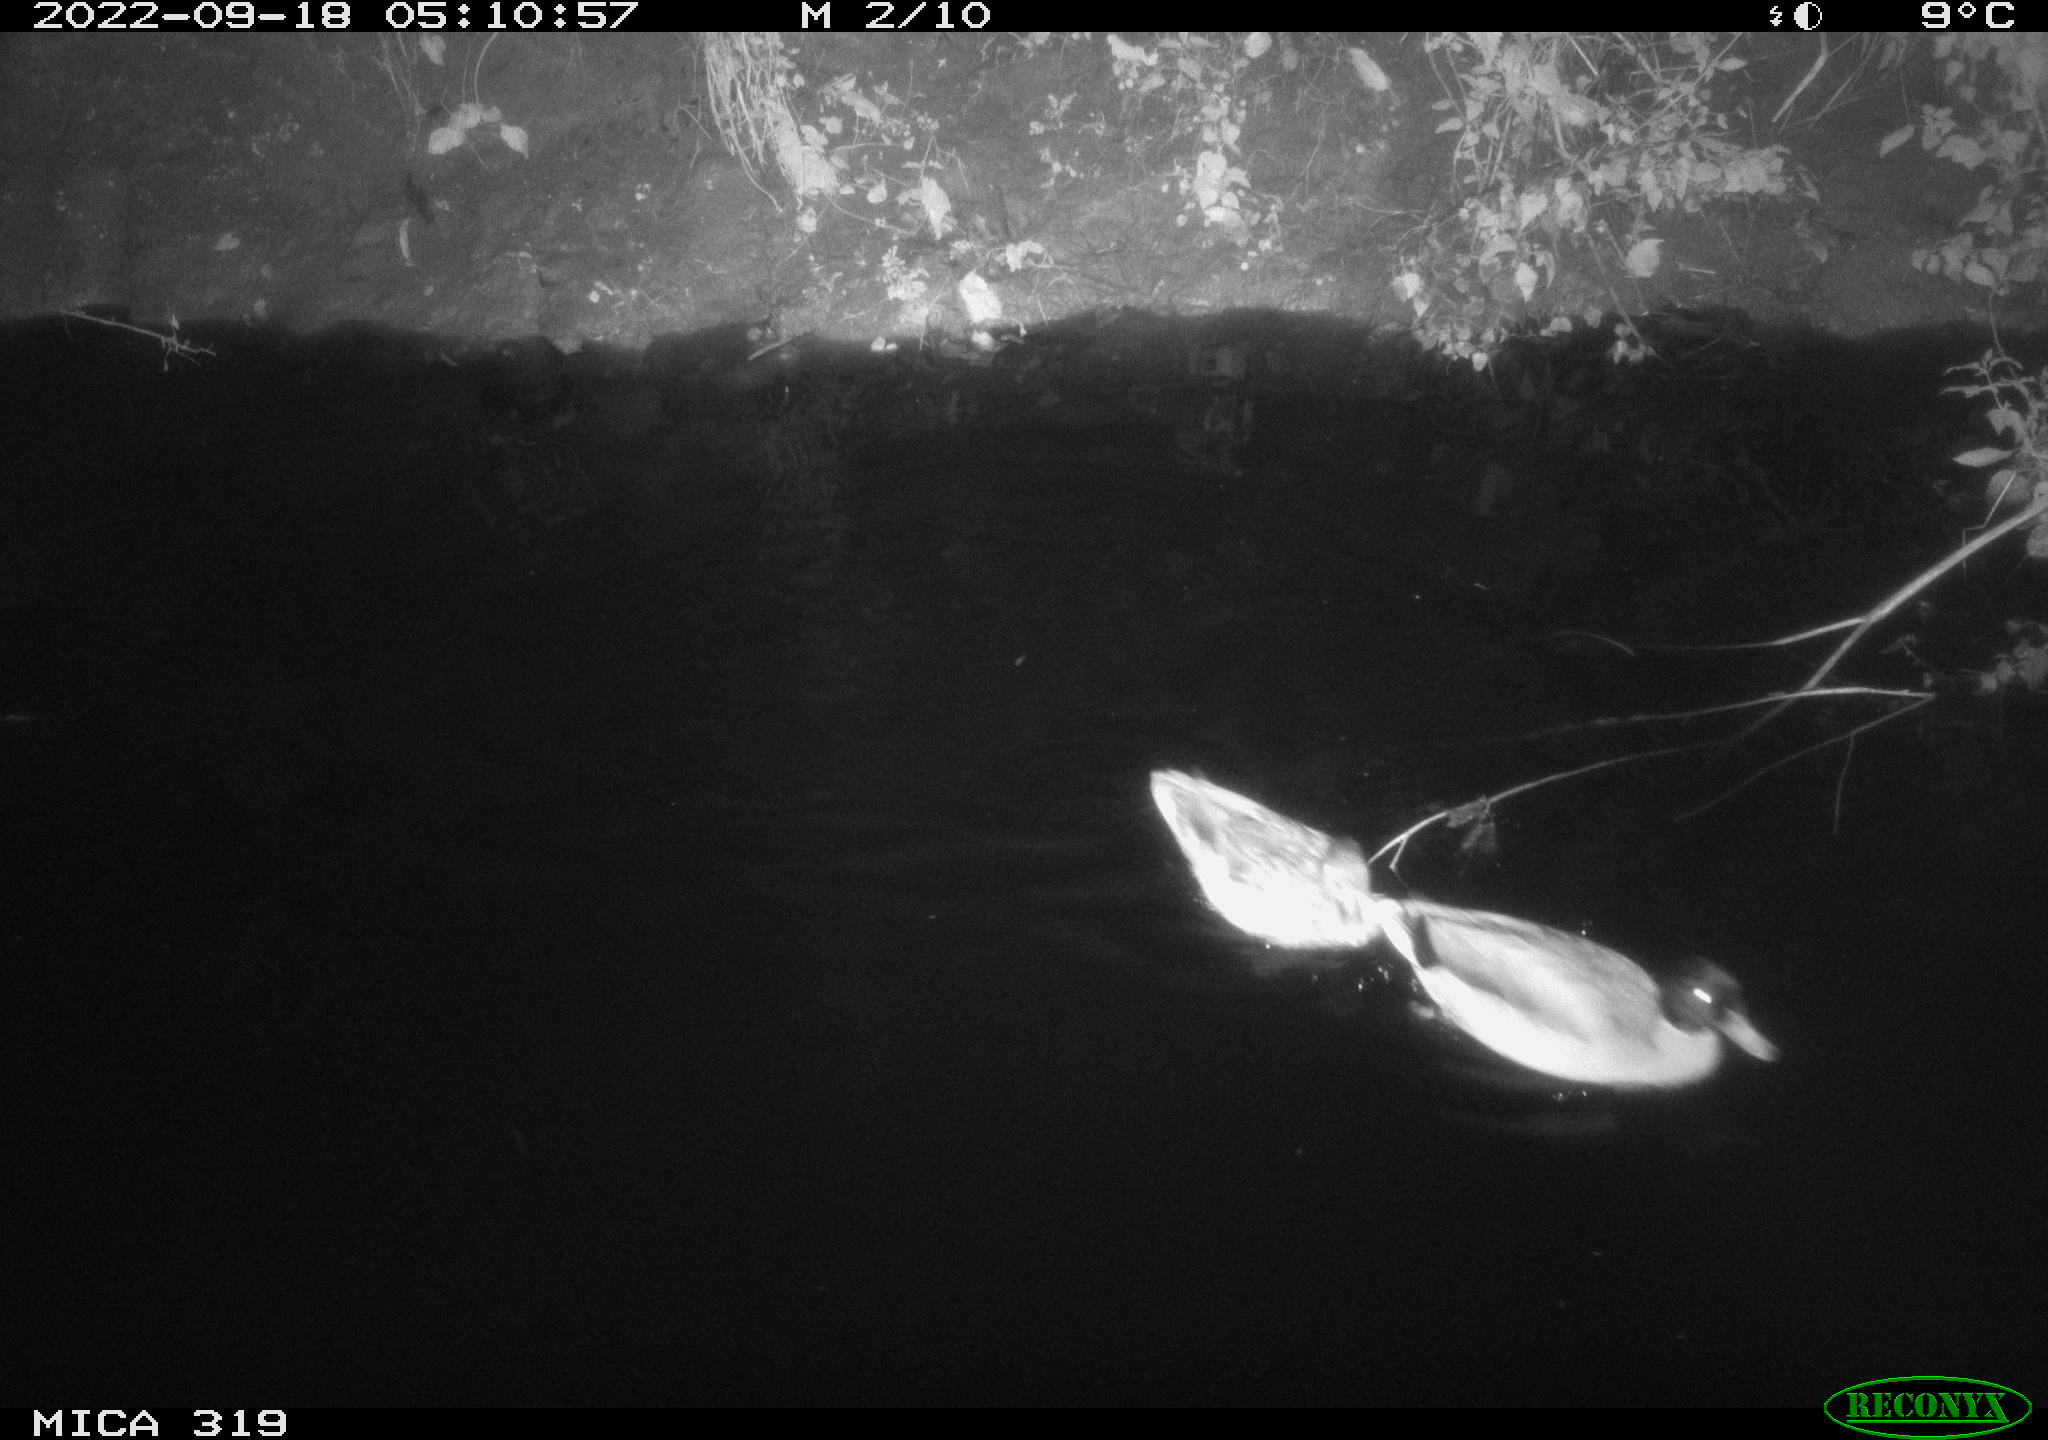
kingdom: Animalia
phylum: Chordata
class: Aves
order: Anseriformes
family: Anatidae
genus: Anas
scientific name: Anas
